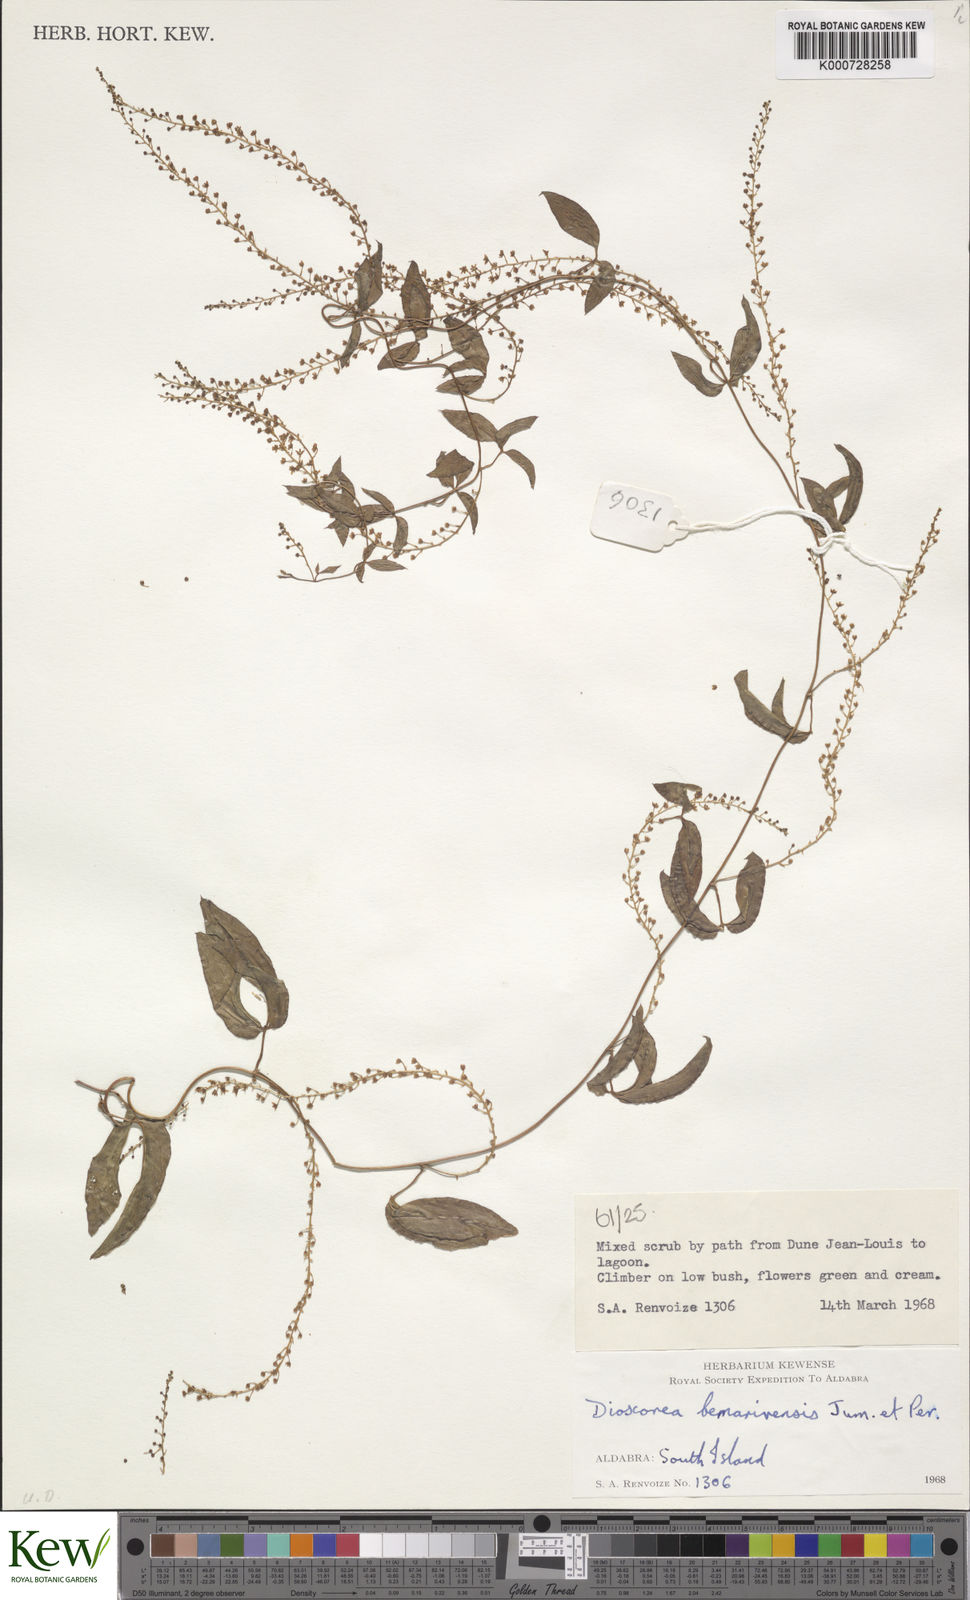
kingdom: Plantae
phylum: Tracheophyta
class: Liliopsida
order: Dioscoreales
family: Dioscoreaceae
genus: Dioscorea
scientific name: Dioscorea bemarivensis
